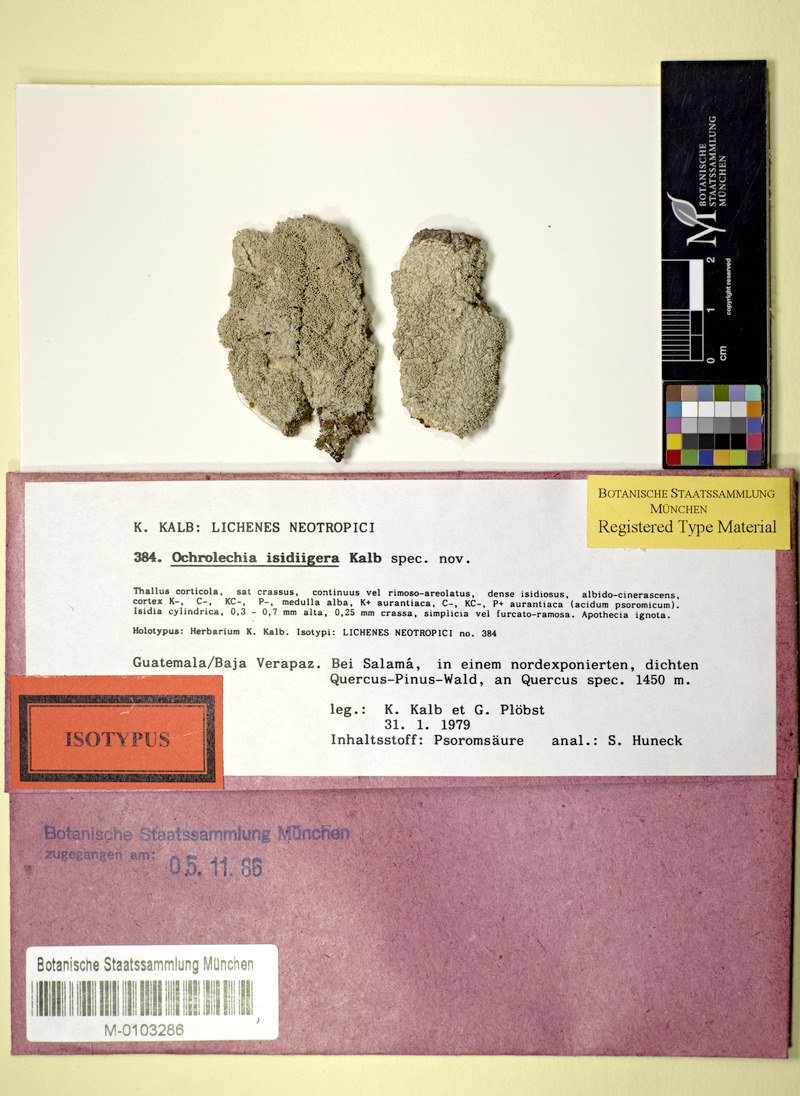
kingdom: Fungi
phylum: Ascomycota
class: Lecanoromycetes
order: Pertusariales
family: Ochrolechiaceae
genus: Ochrolechia
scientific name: Ochrolechia isidiigera
